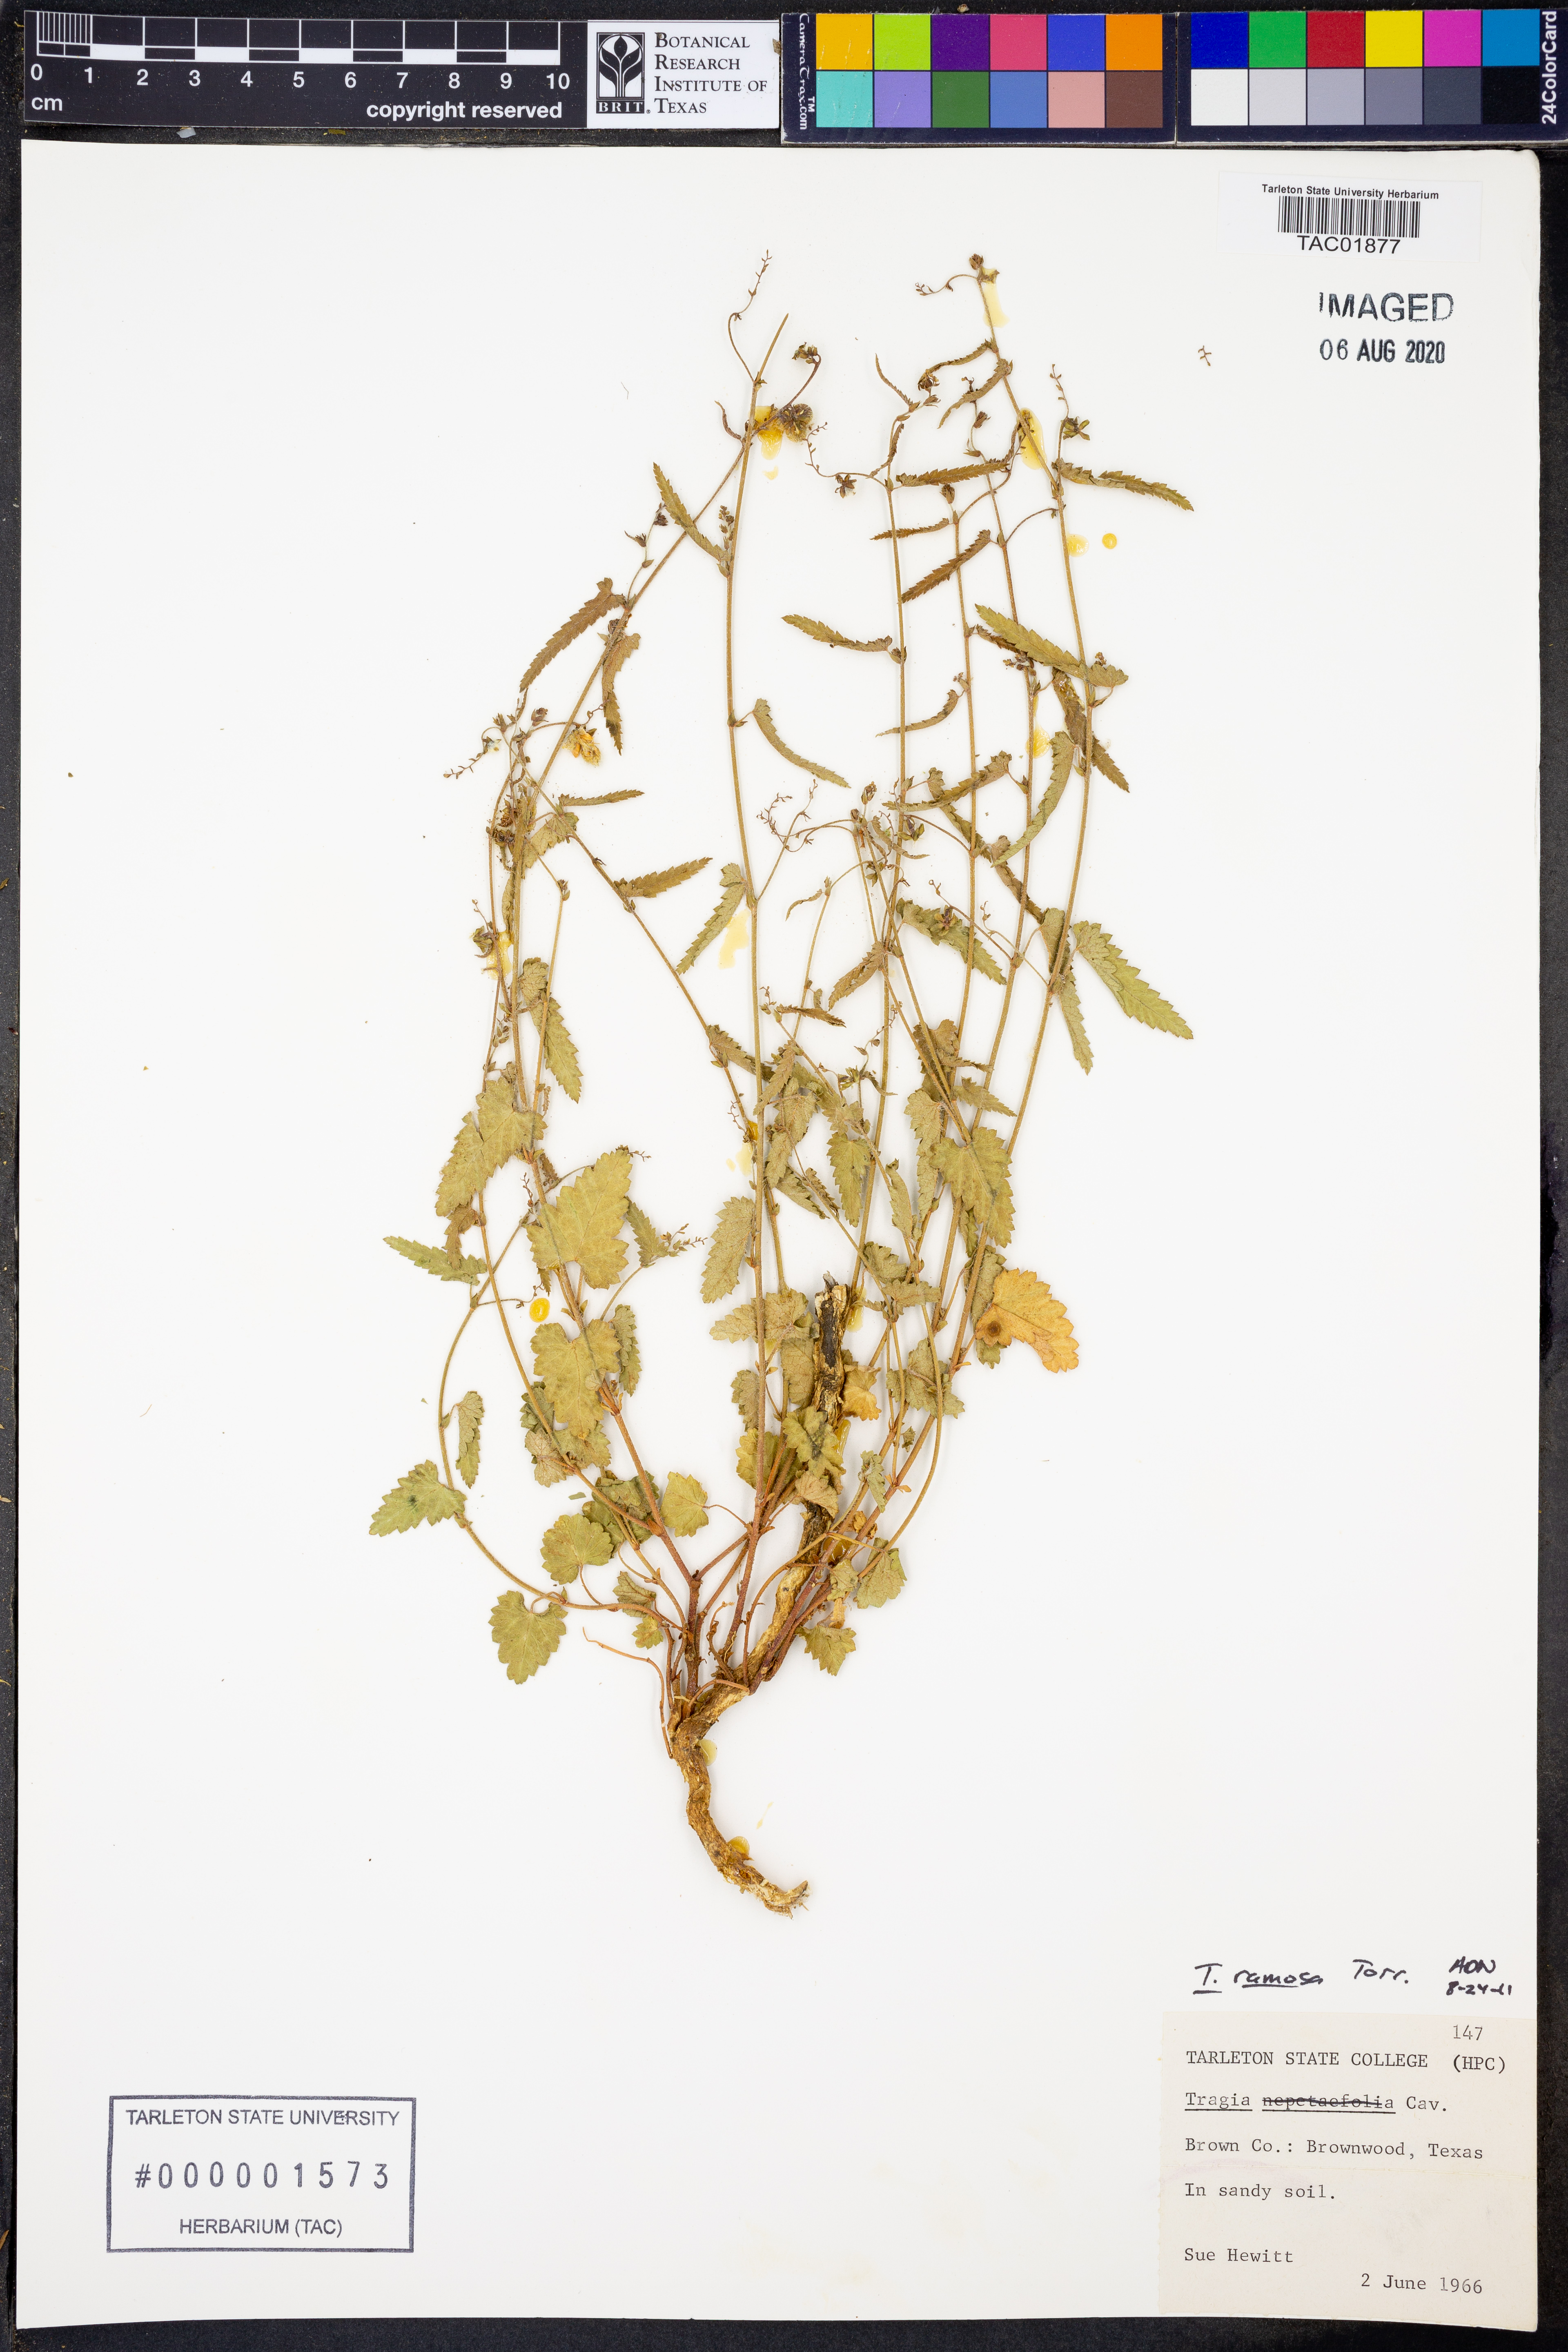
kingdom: Plantae
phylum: Tracheophyta
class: Magnoliopsida
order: Malpighiales
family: Euphorbiaceae
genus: Tragia
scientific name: Tragia ramosa
